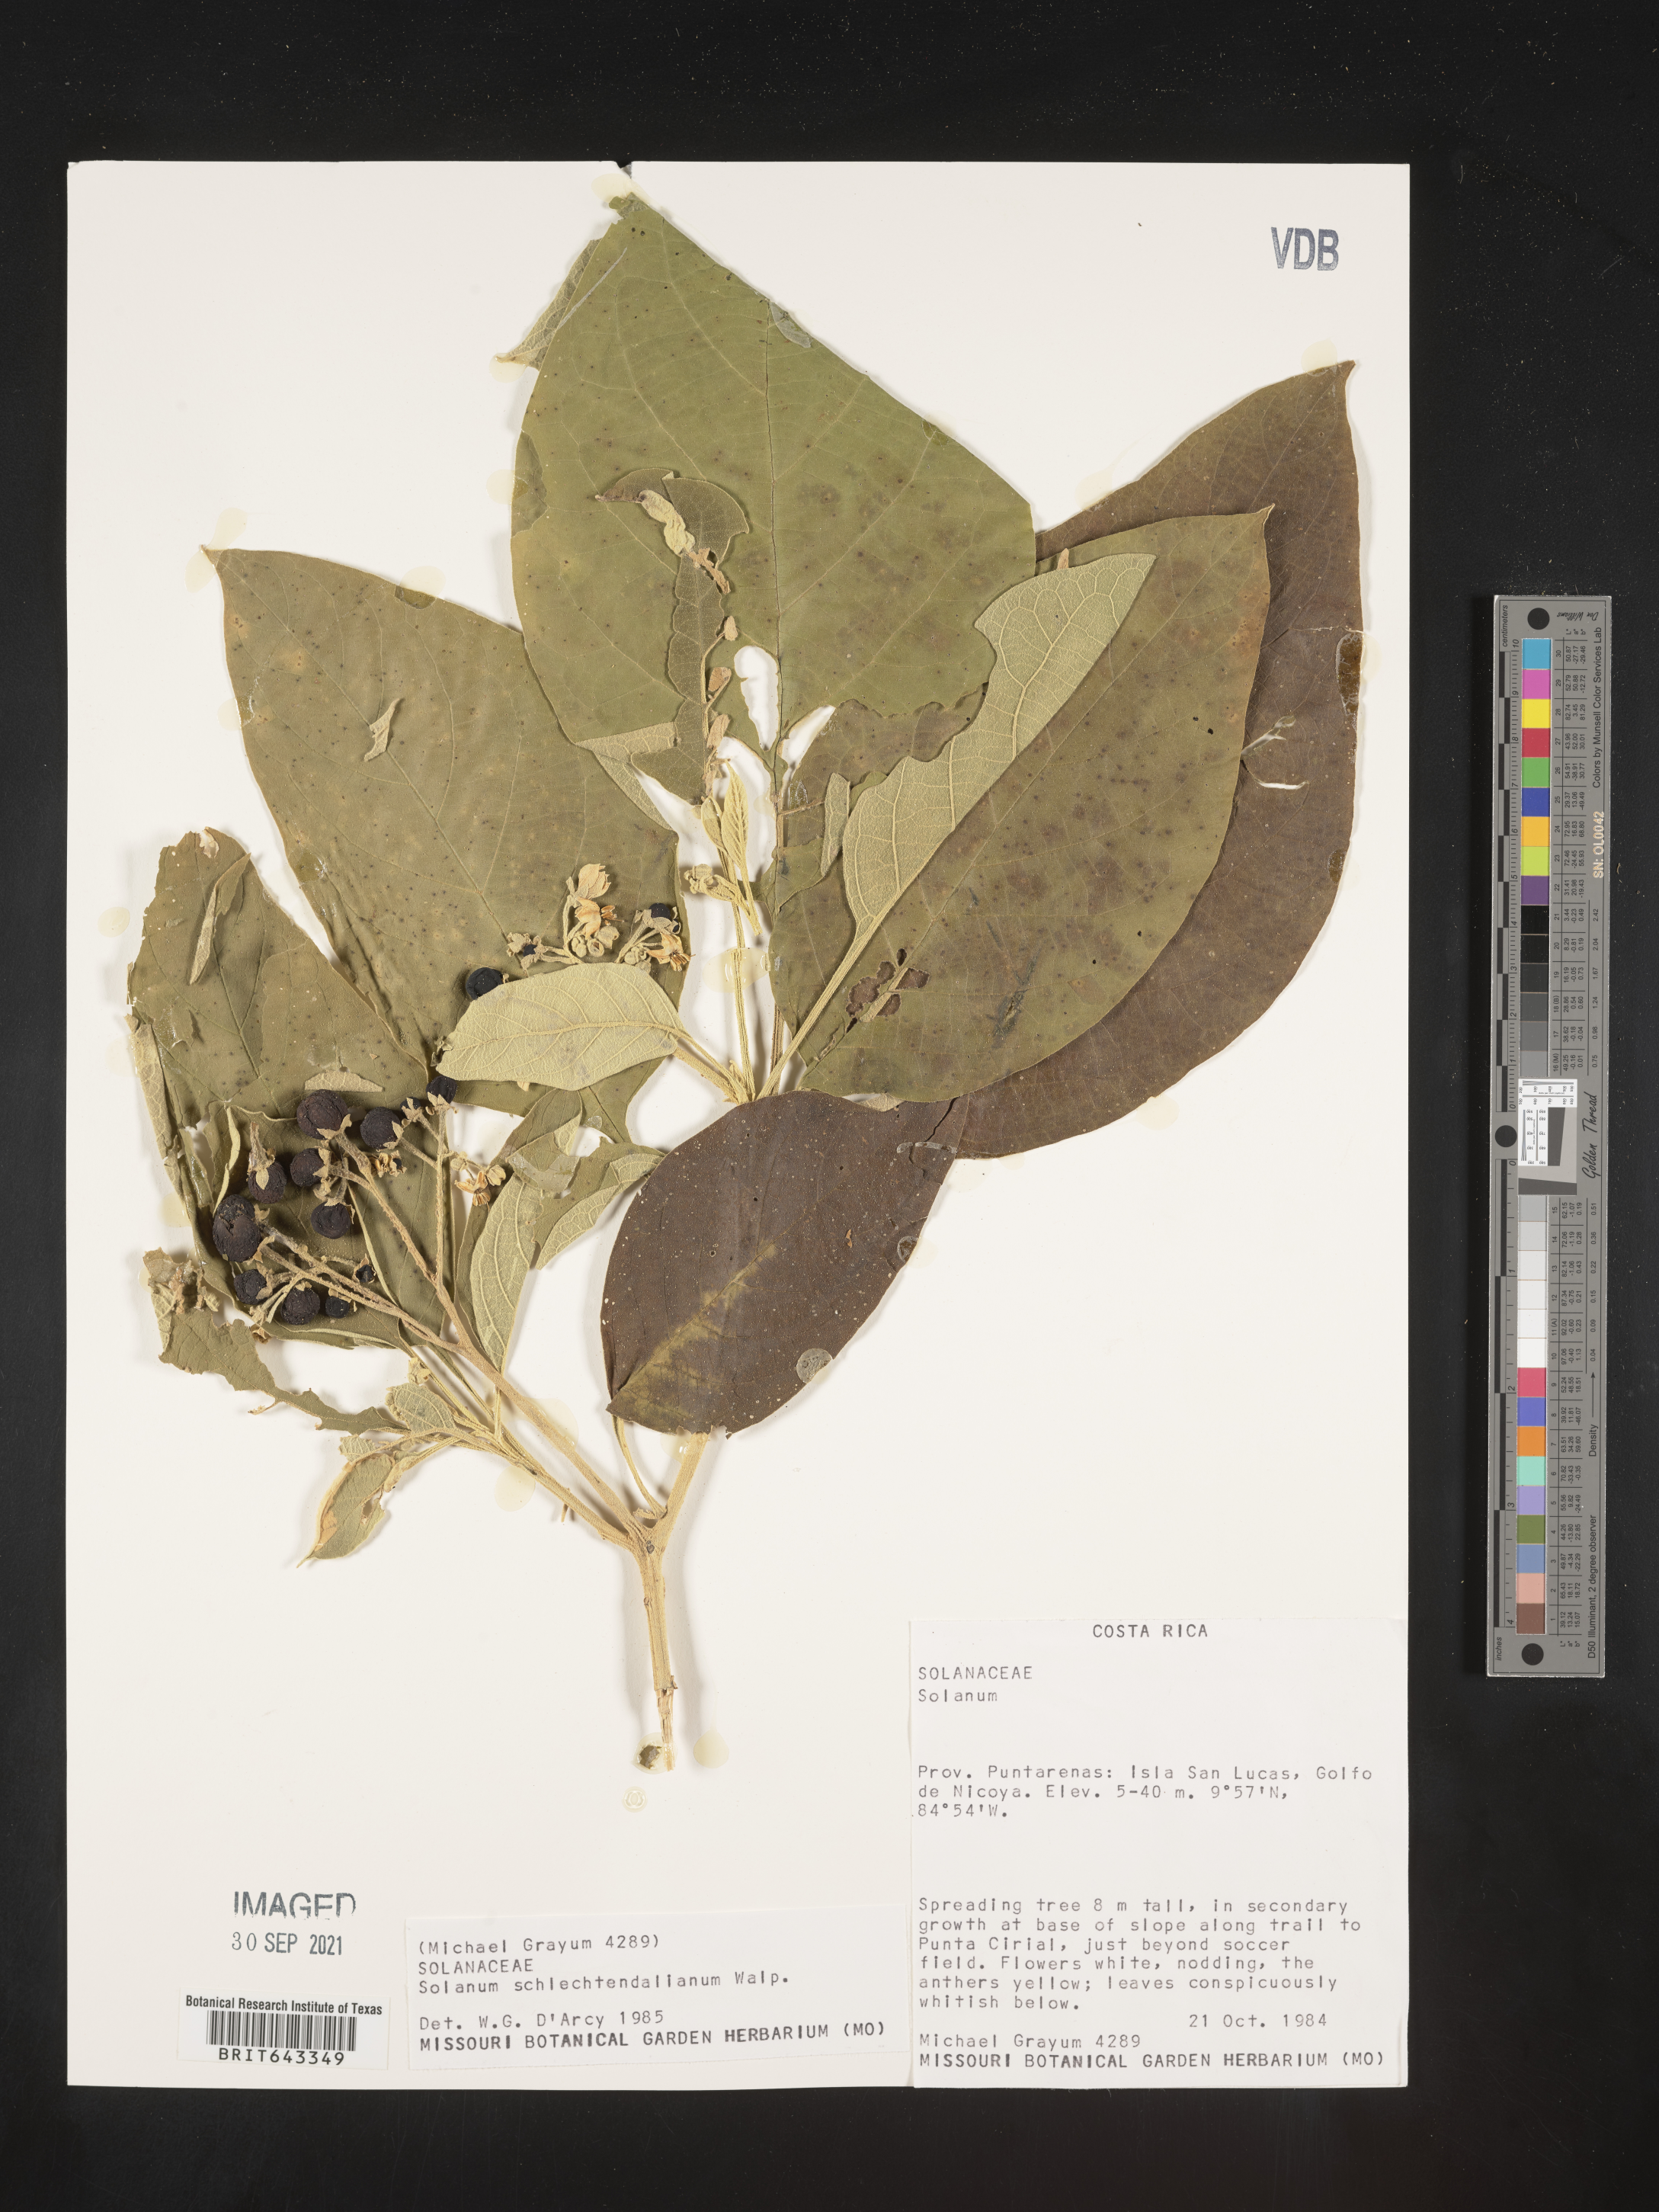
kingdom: Plantae
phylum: Tracheophyta
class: Magnoliopsida
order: Solanales
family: Solanaceae
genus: Solanum
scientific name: Solanum
